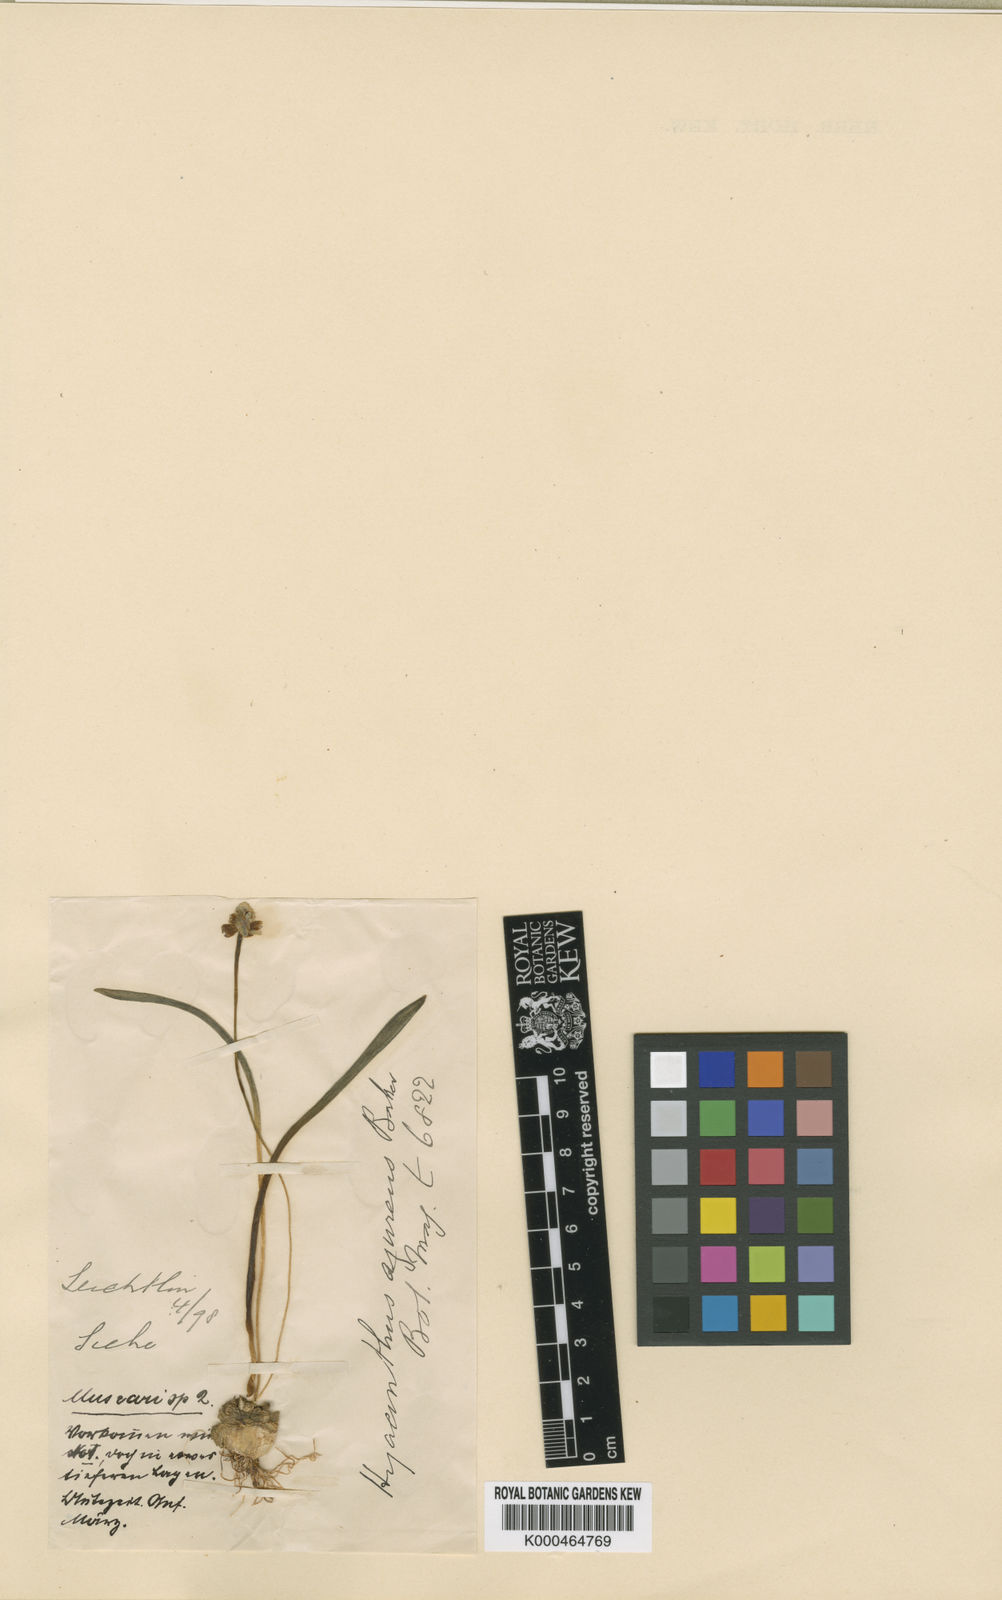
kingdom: Plantae
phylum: Tracheophyta
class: Liliopsida
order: Asparagales
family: Asparagaceae
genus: Muscari
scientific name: Muscari azureum
